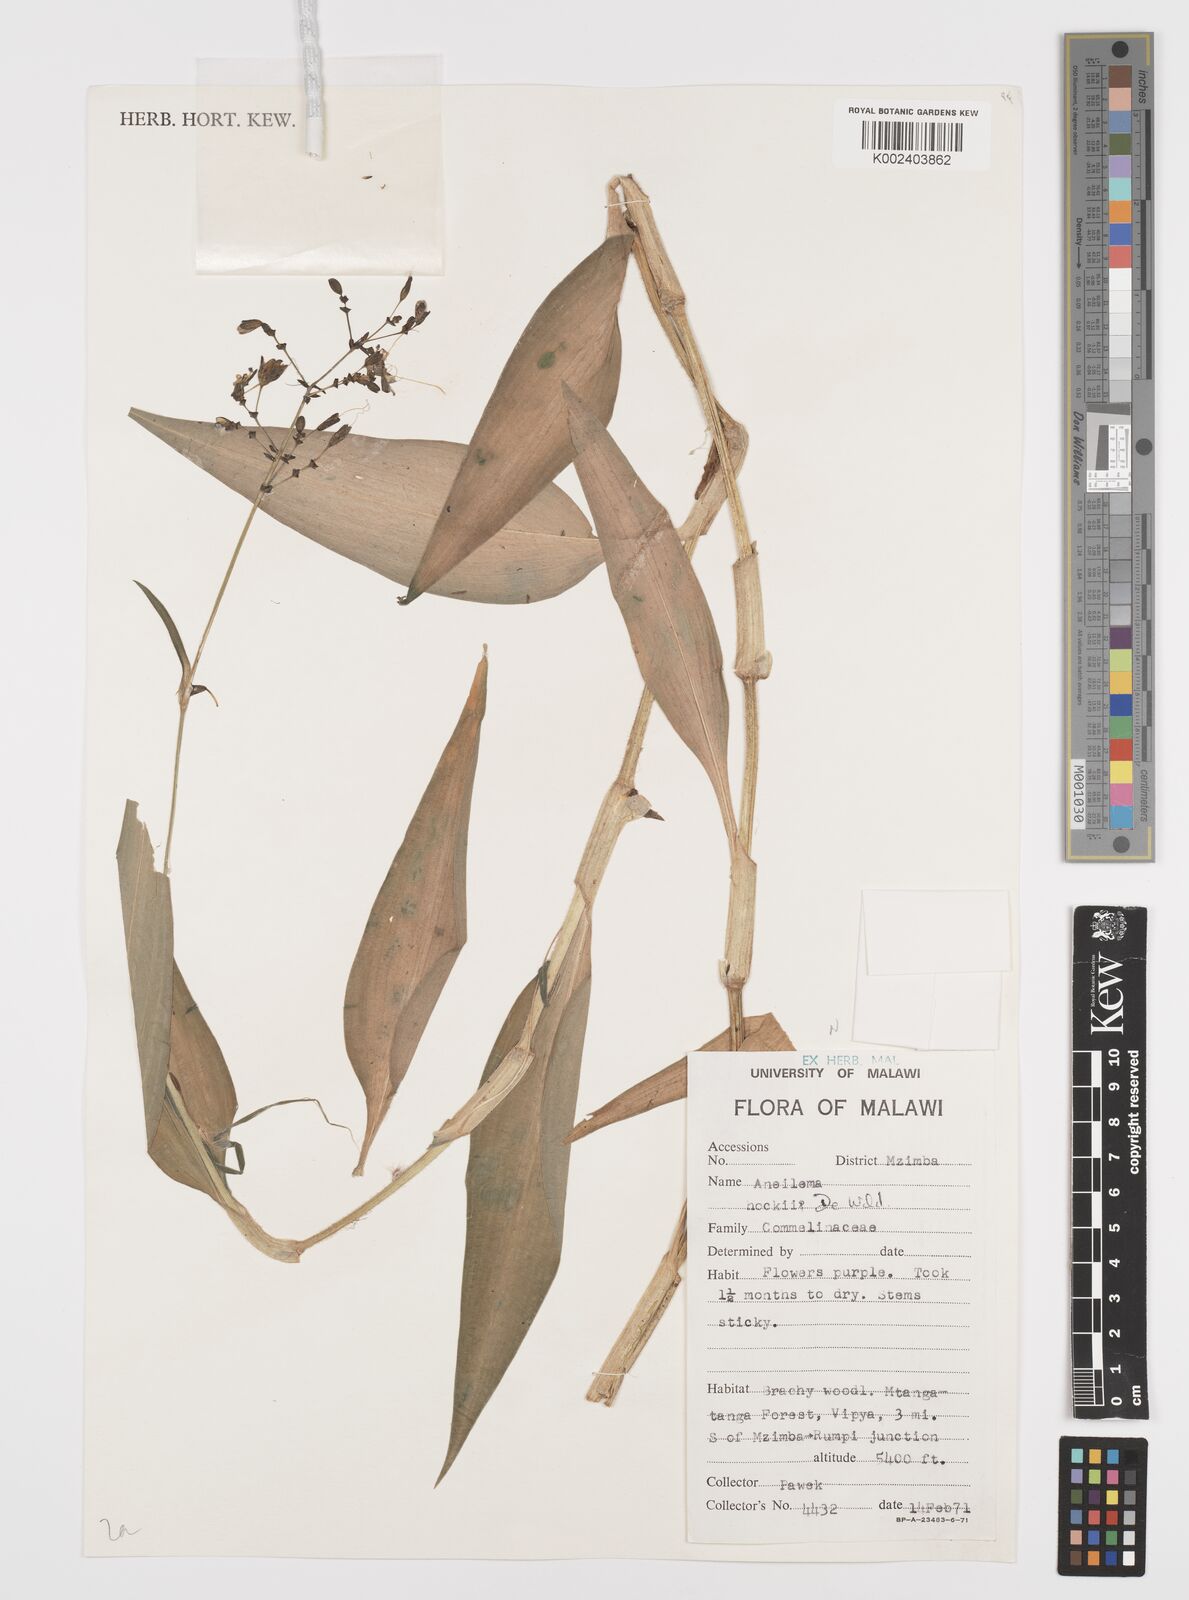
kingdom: Plantae
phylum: Tracheophyta
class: Liliopsida
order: Commelinales
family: Commelinaceae
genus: Aneilema
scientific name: Aneilema hockii
